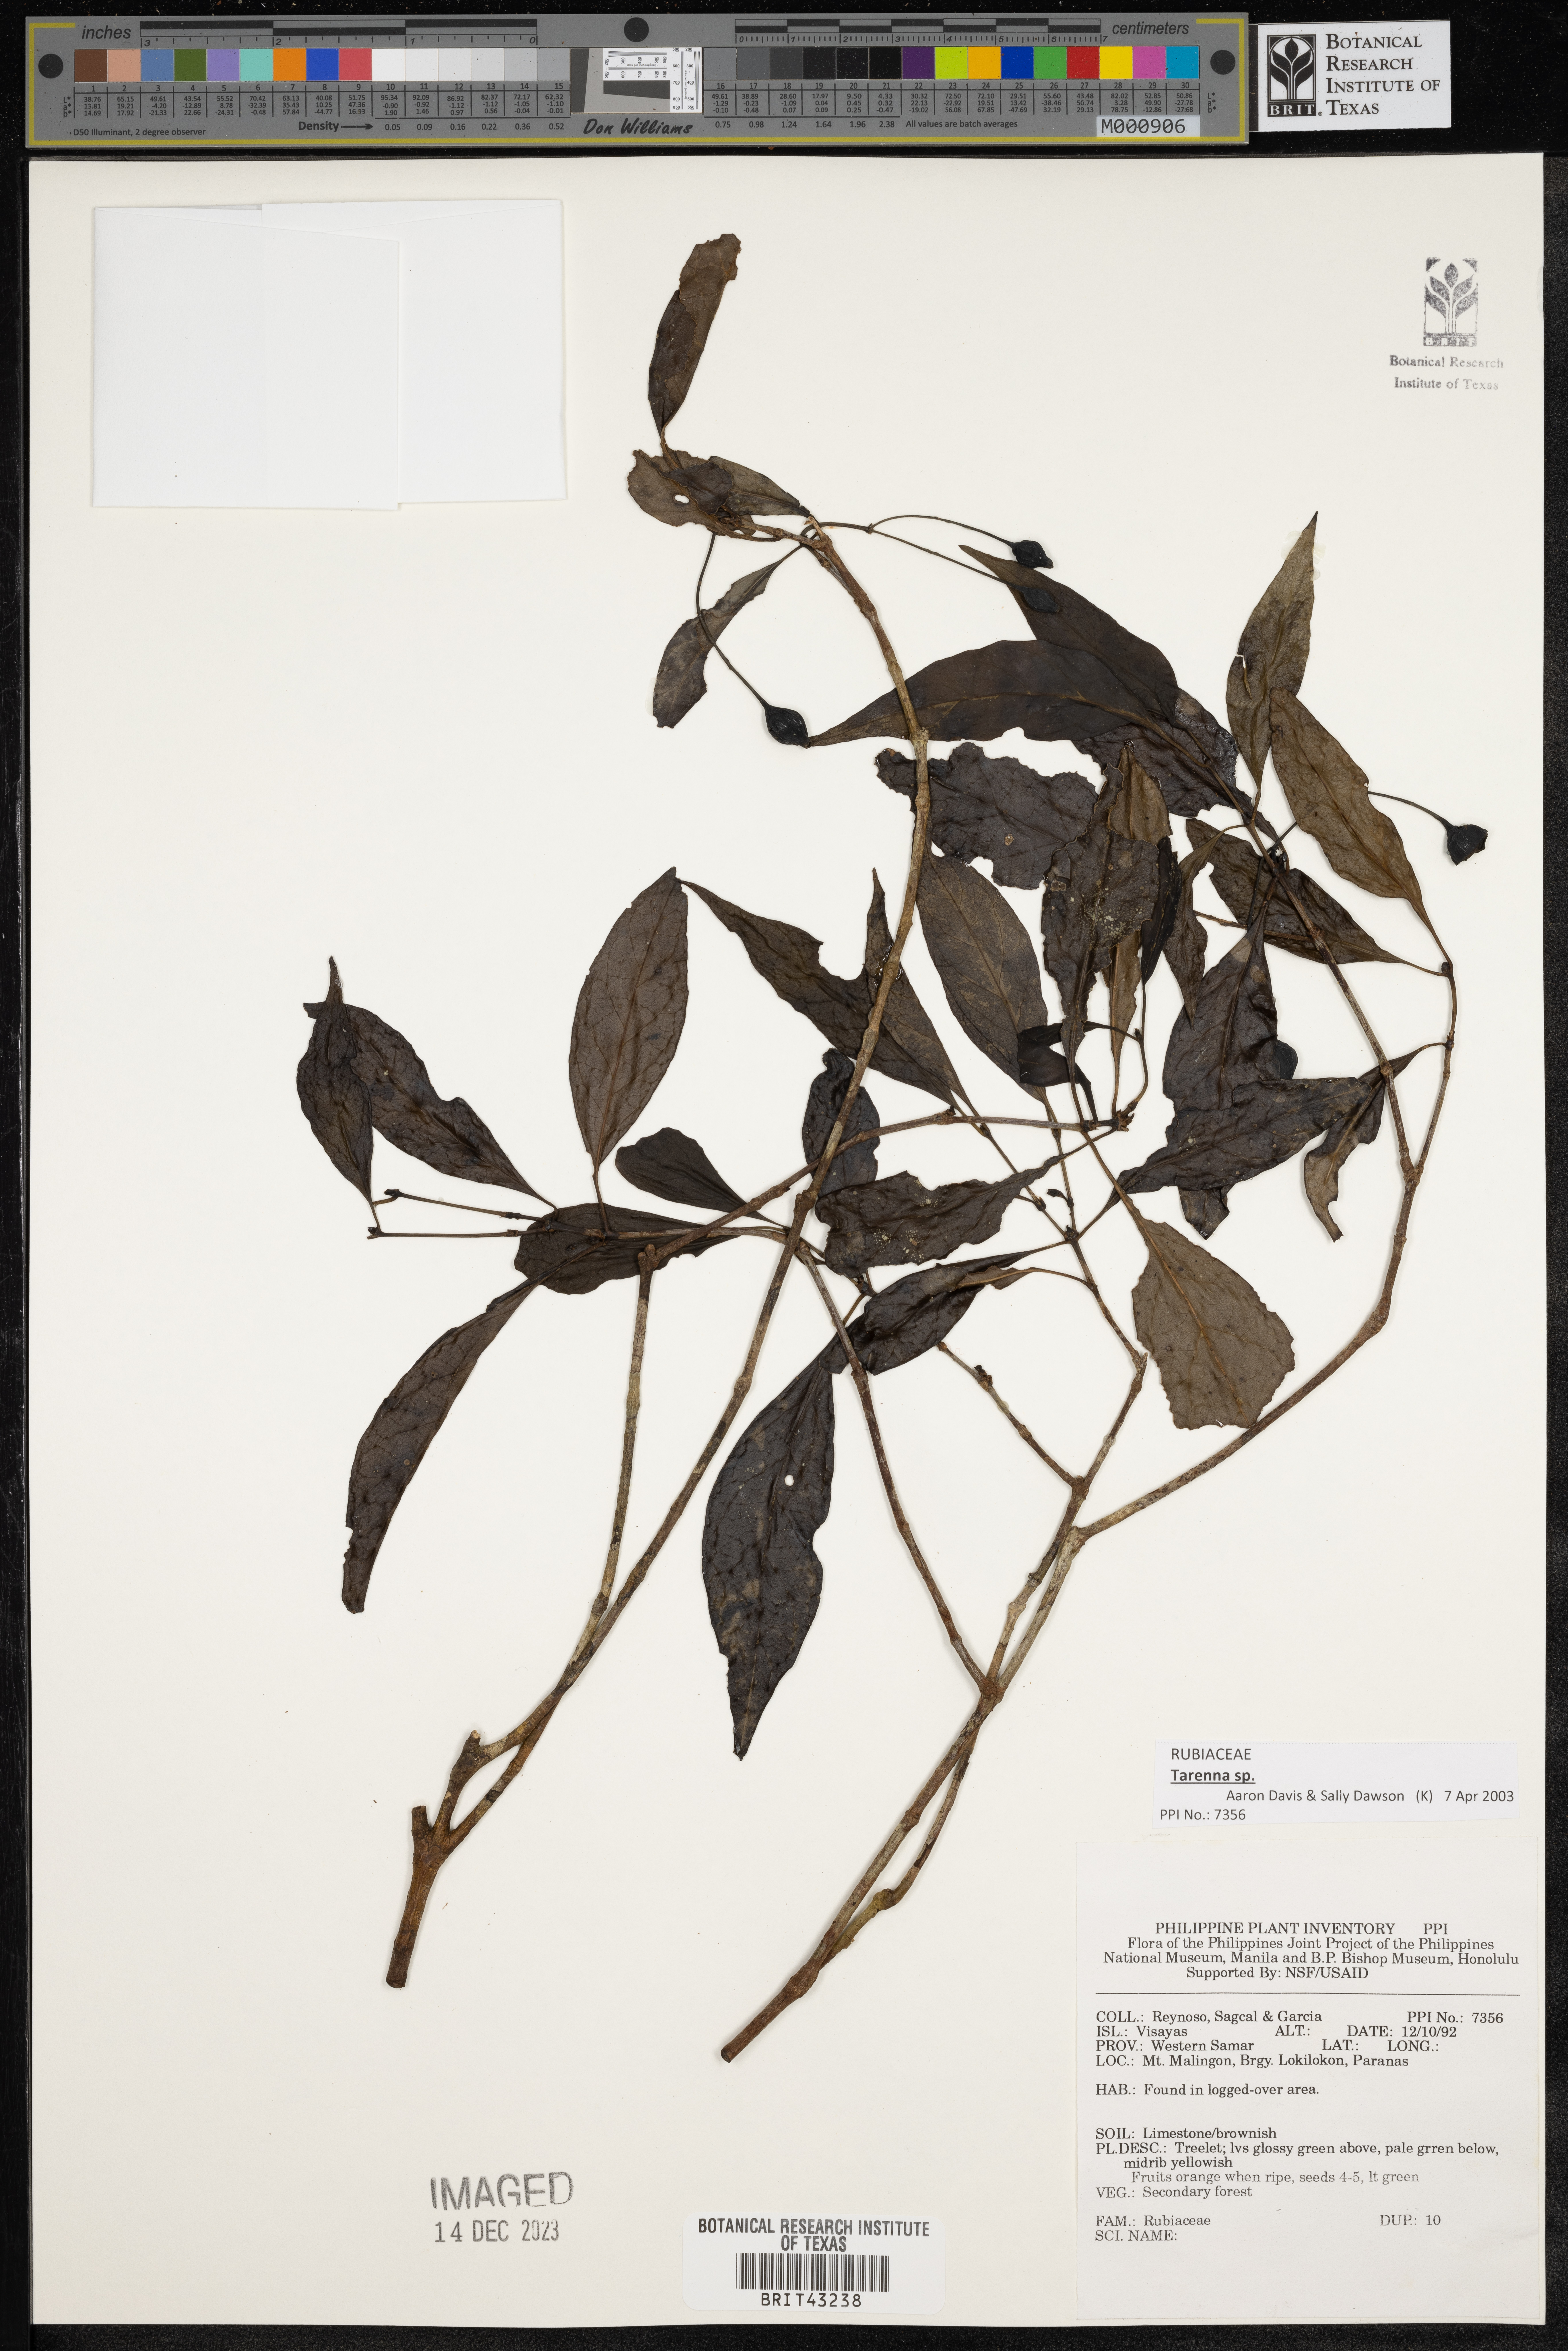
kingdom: Plantae
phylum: Tracheophyta
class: Magnoliopsida
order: Gentianales
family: Rubiaceae
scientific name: Rubiaceae
